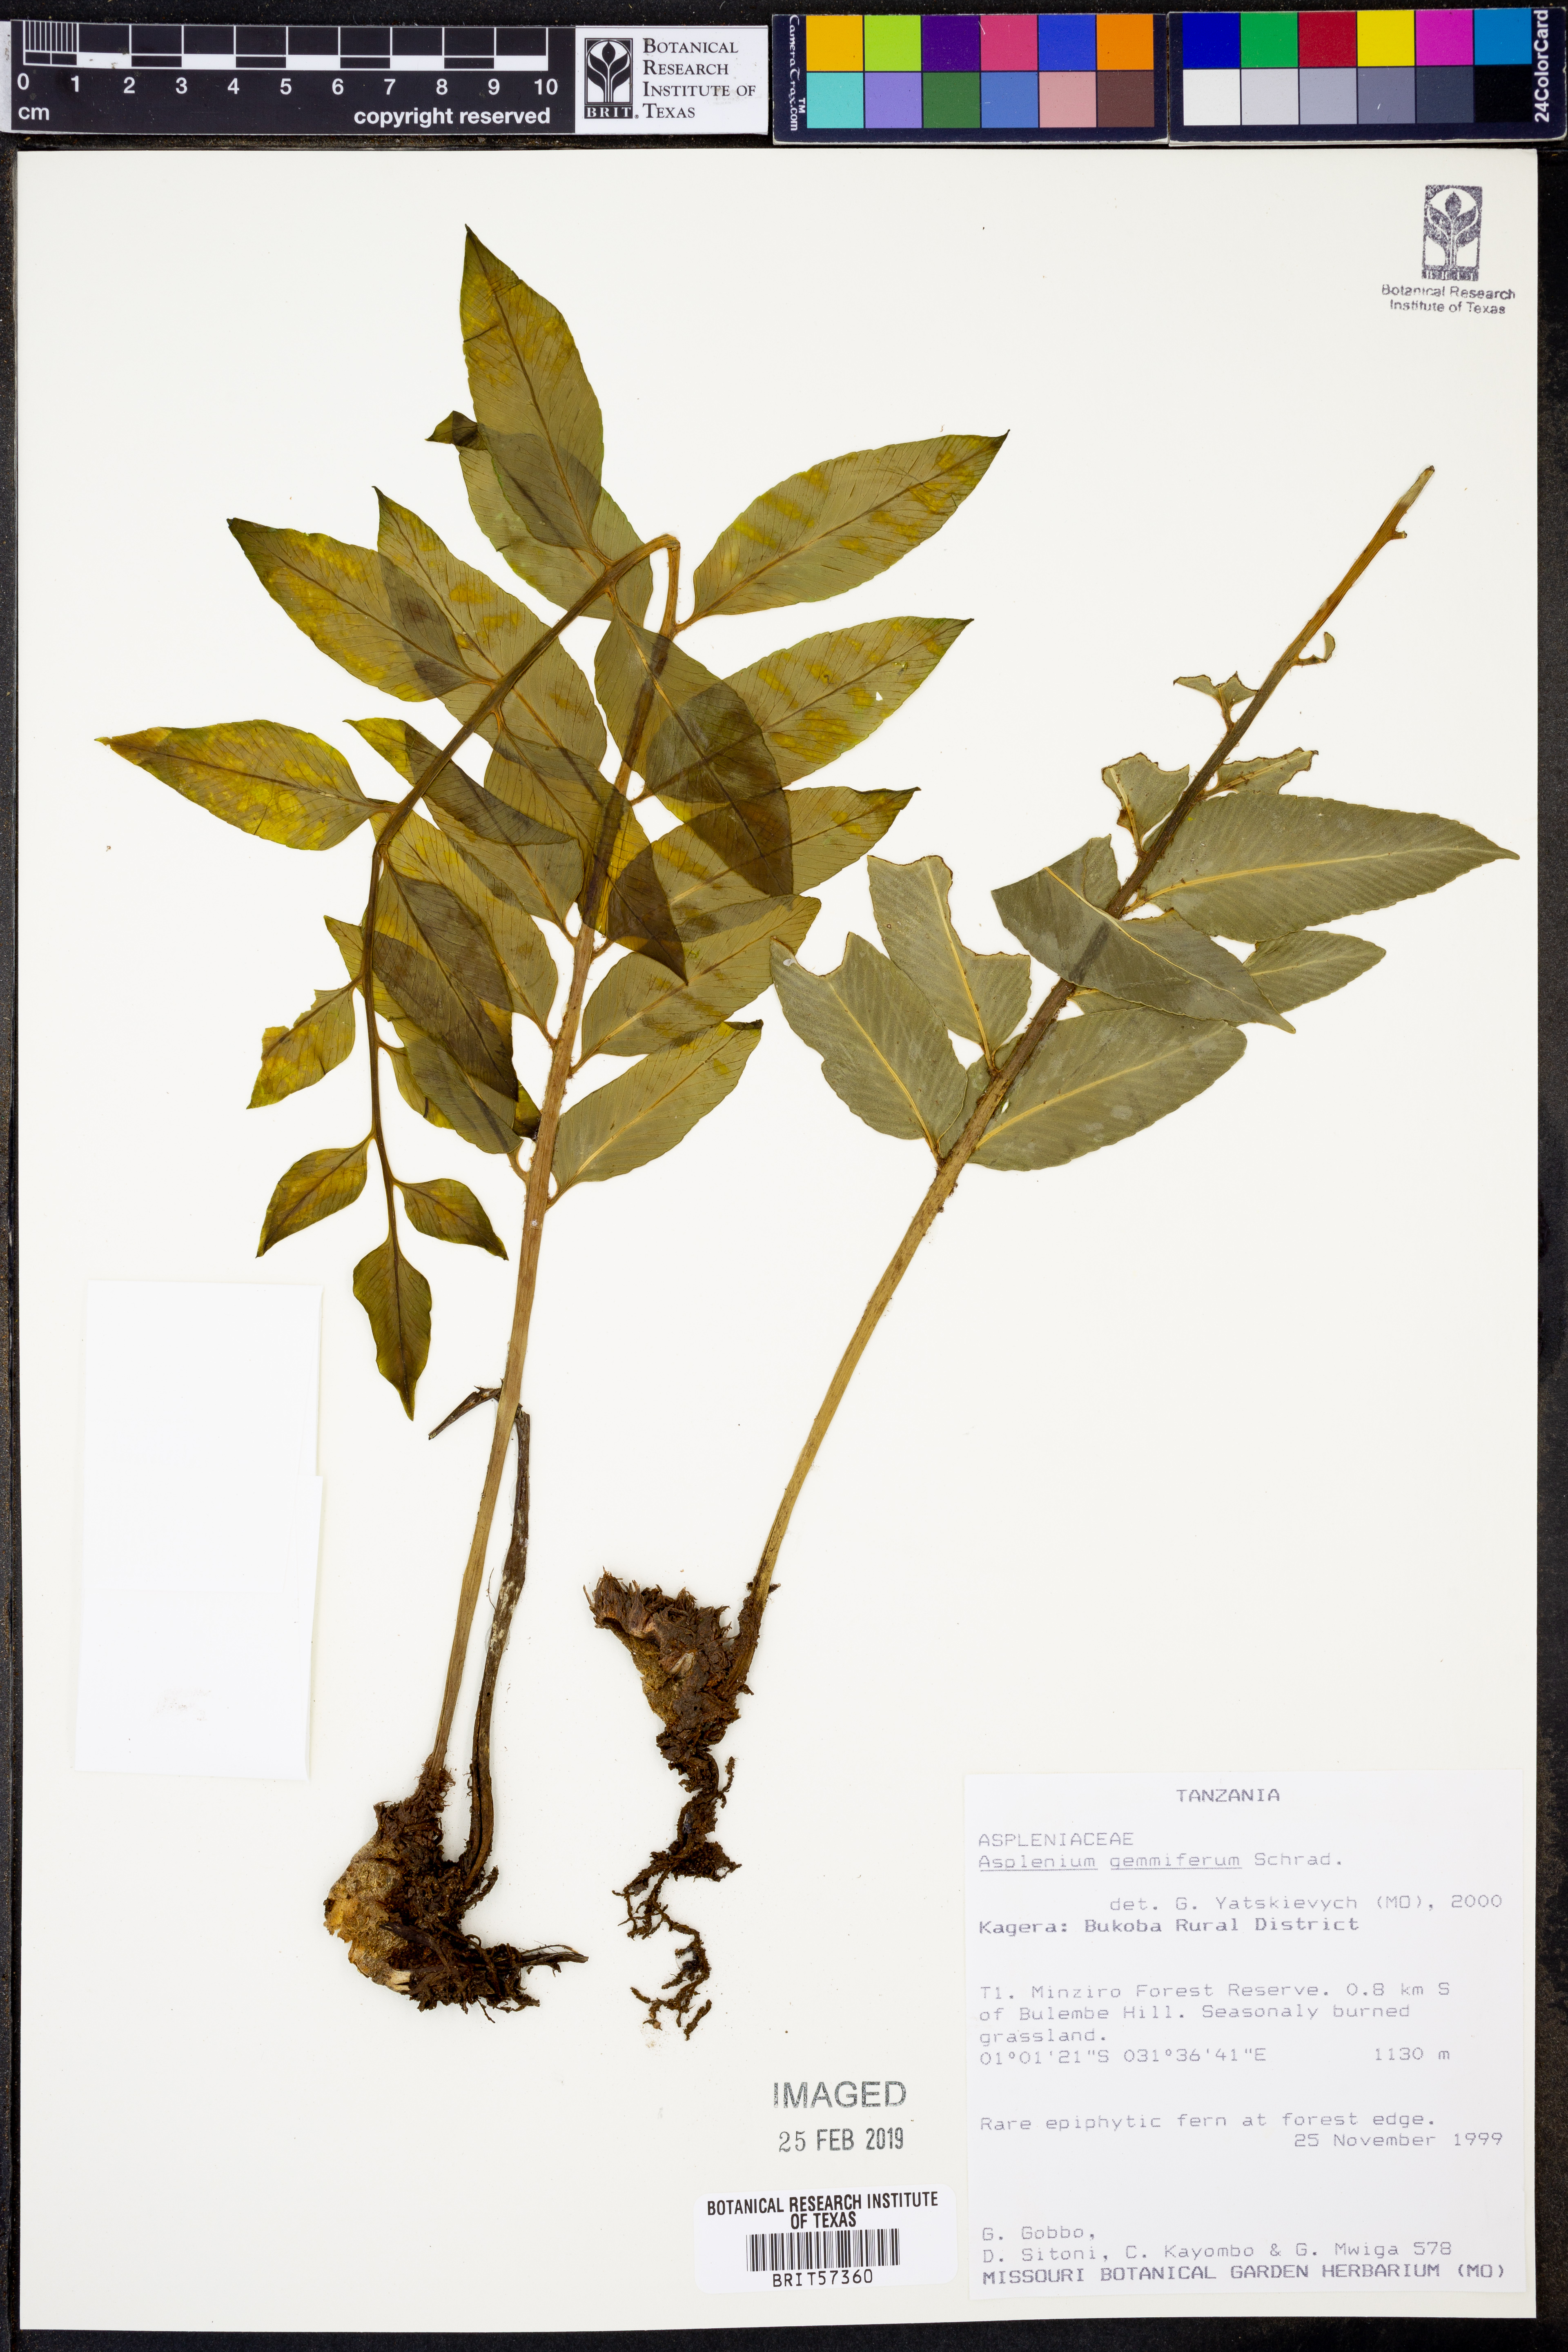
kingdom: Plantae
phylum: Tracheophyta
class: Polypodiopsida
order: Polypodiales
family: Aspleniaceae
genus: Asplenium
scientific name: Asplenium gemmiferum
